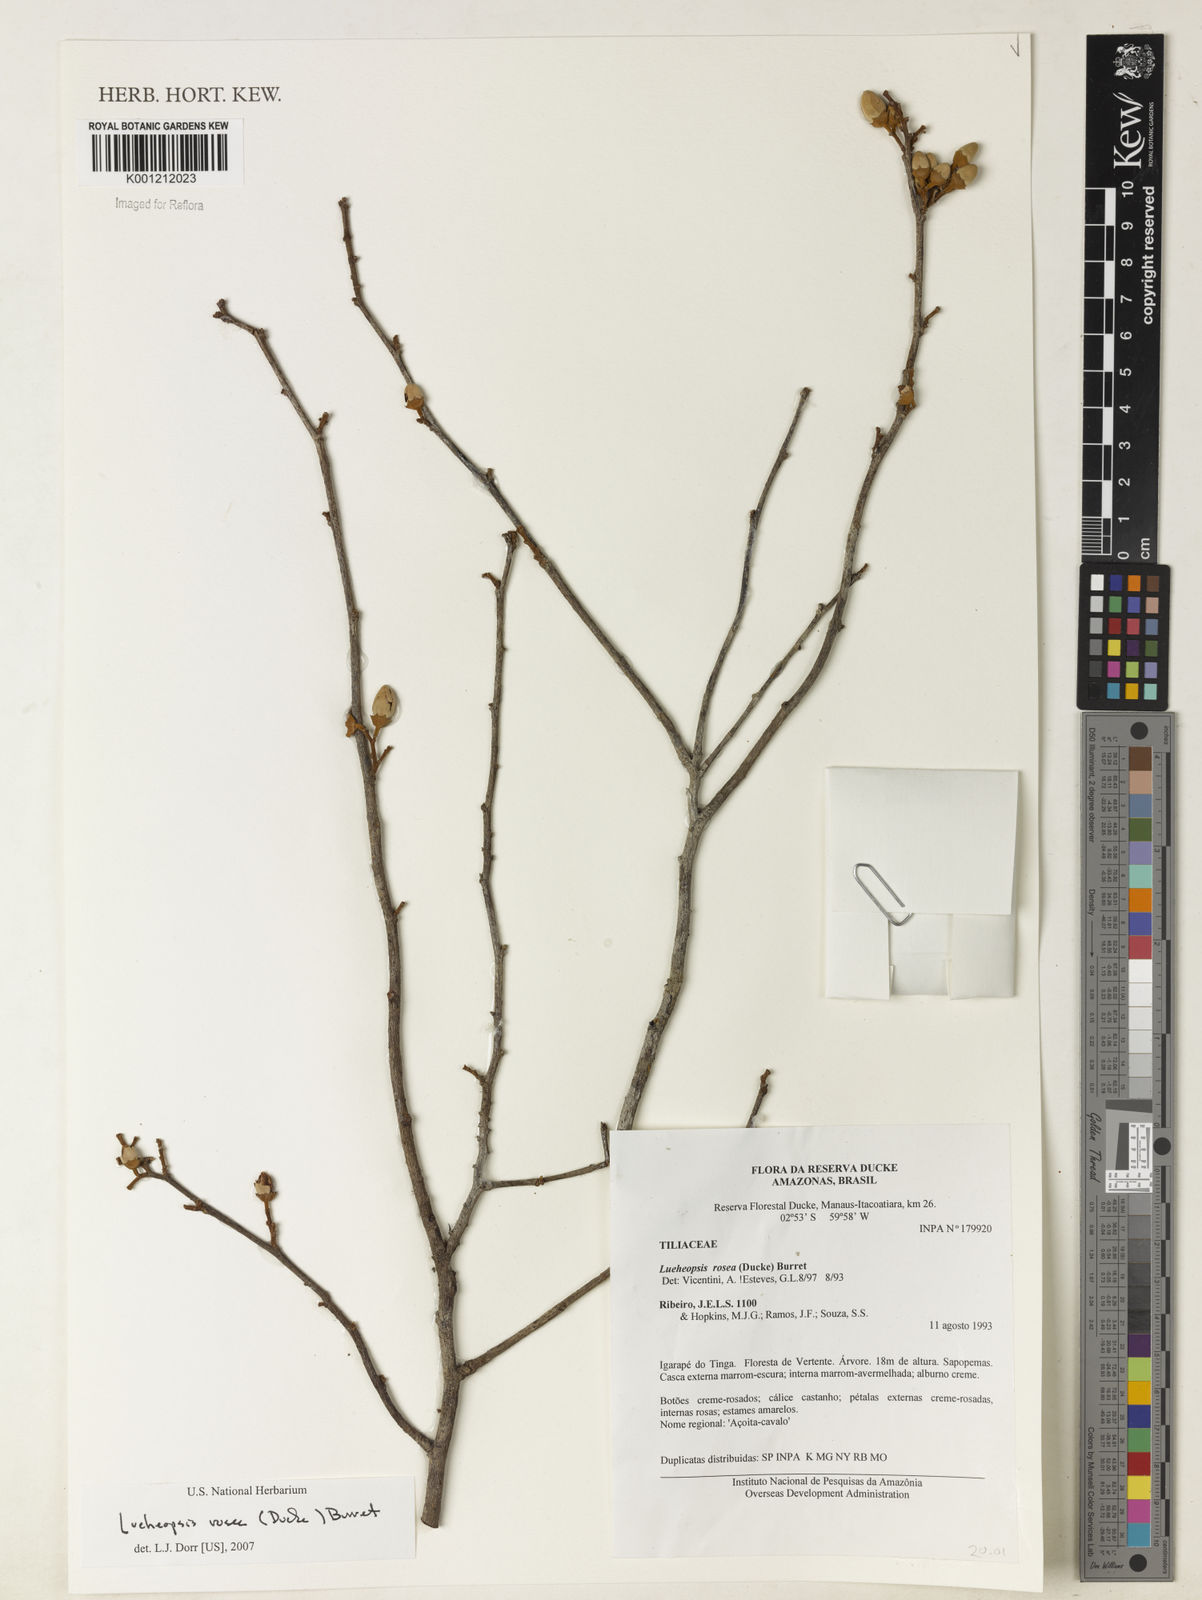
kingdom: Plantae
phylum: Tracheophyta
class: Magnoliopsida
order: Malvales
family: Malvaceae
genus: Lueheopsis
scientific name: Lueheopsis rosea
